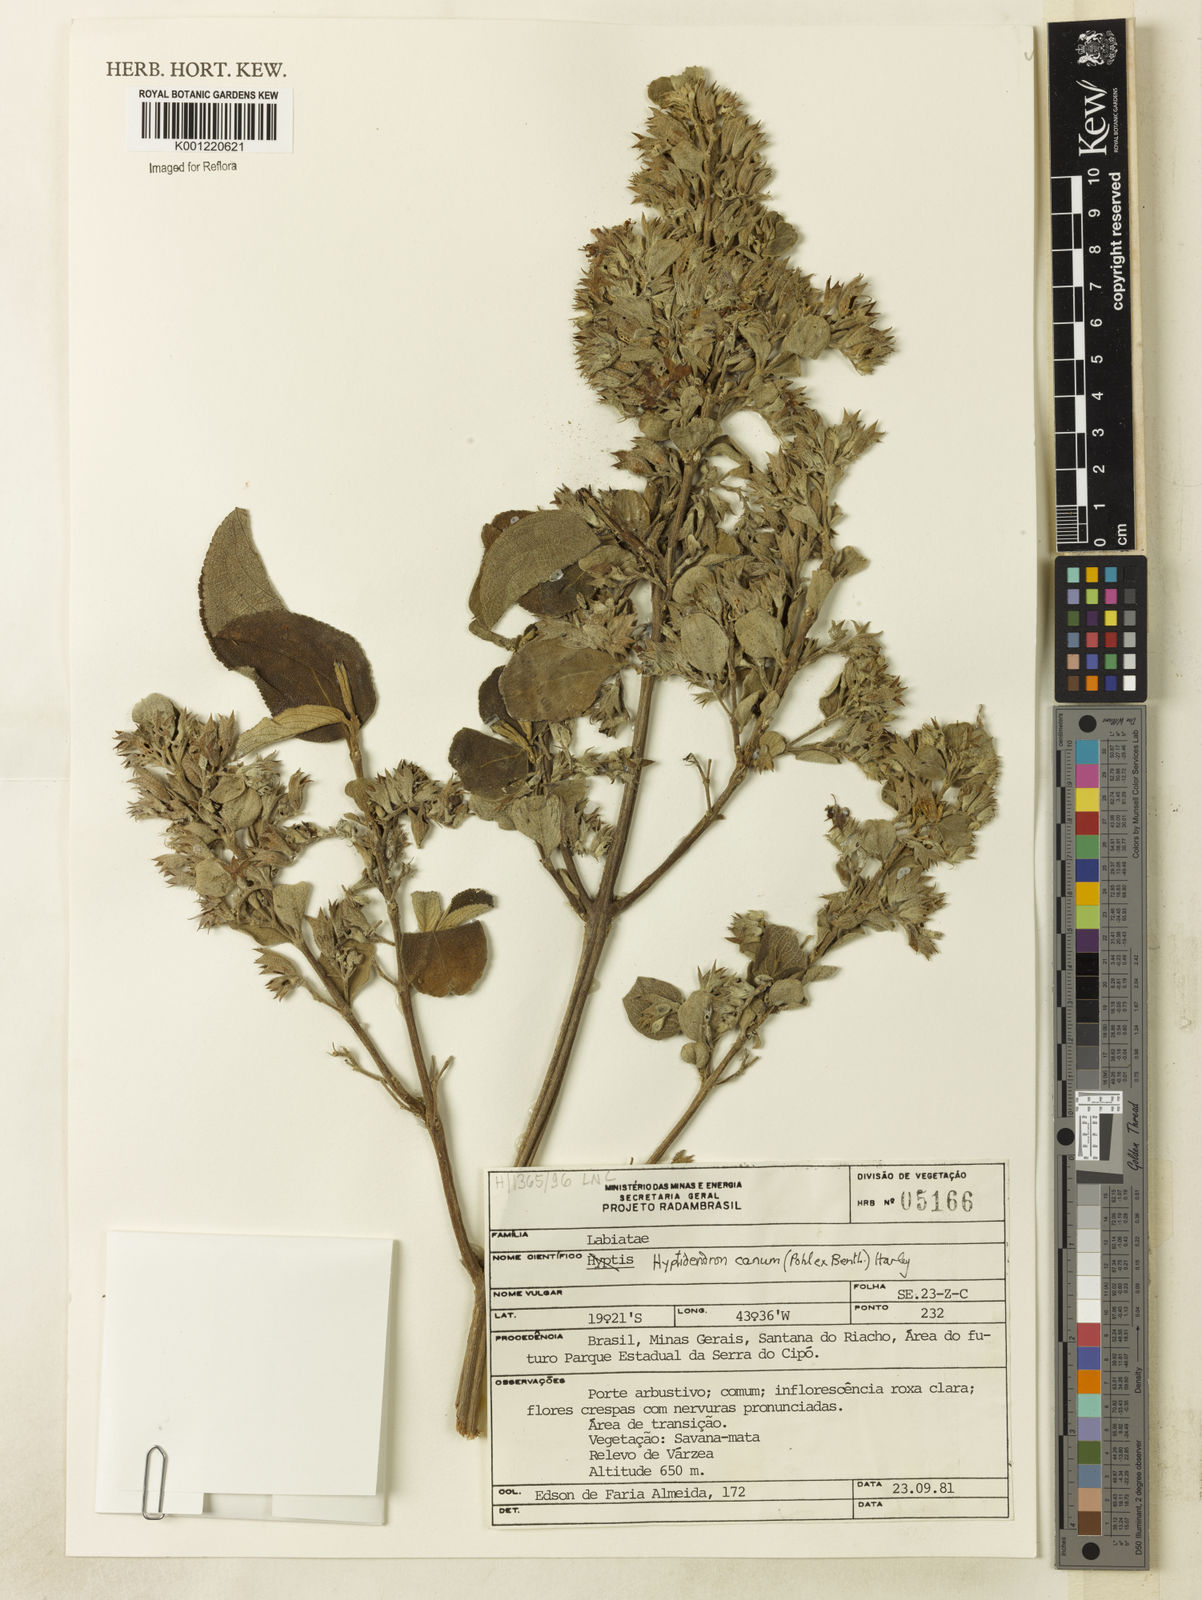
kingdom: Plantae
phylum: Tracheophyta
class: Magnoliopsida
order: Lamiales
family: Lamiaceae
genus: Hyptidendron
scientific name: Hyptidendron canum
